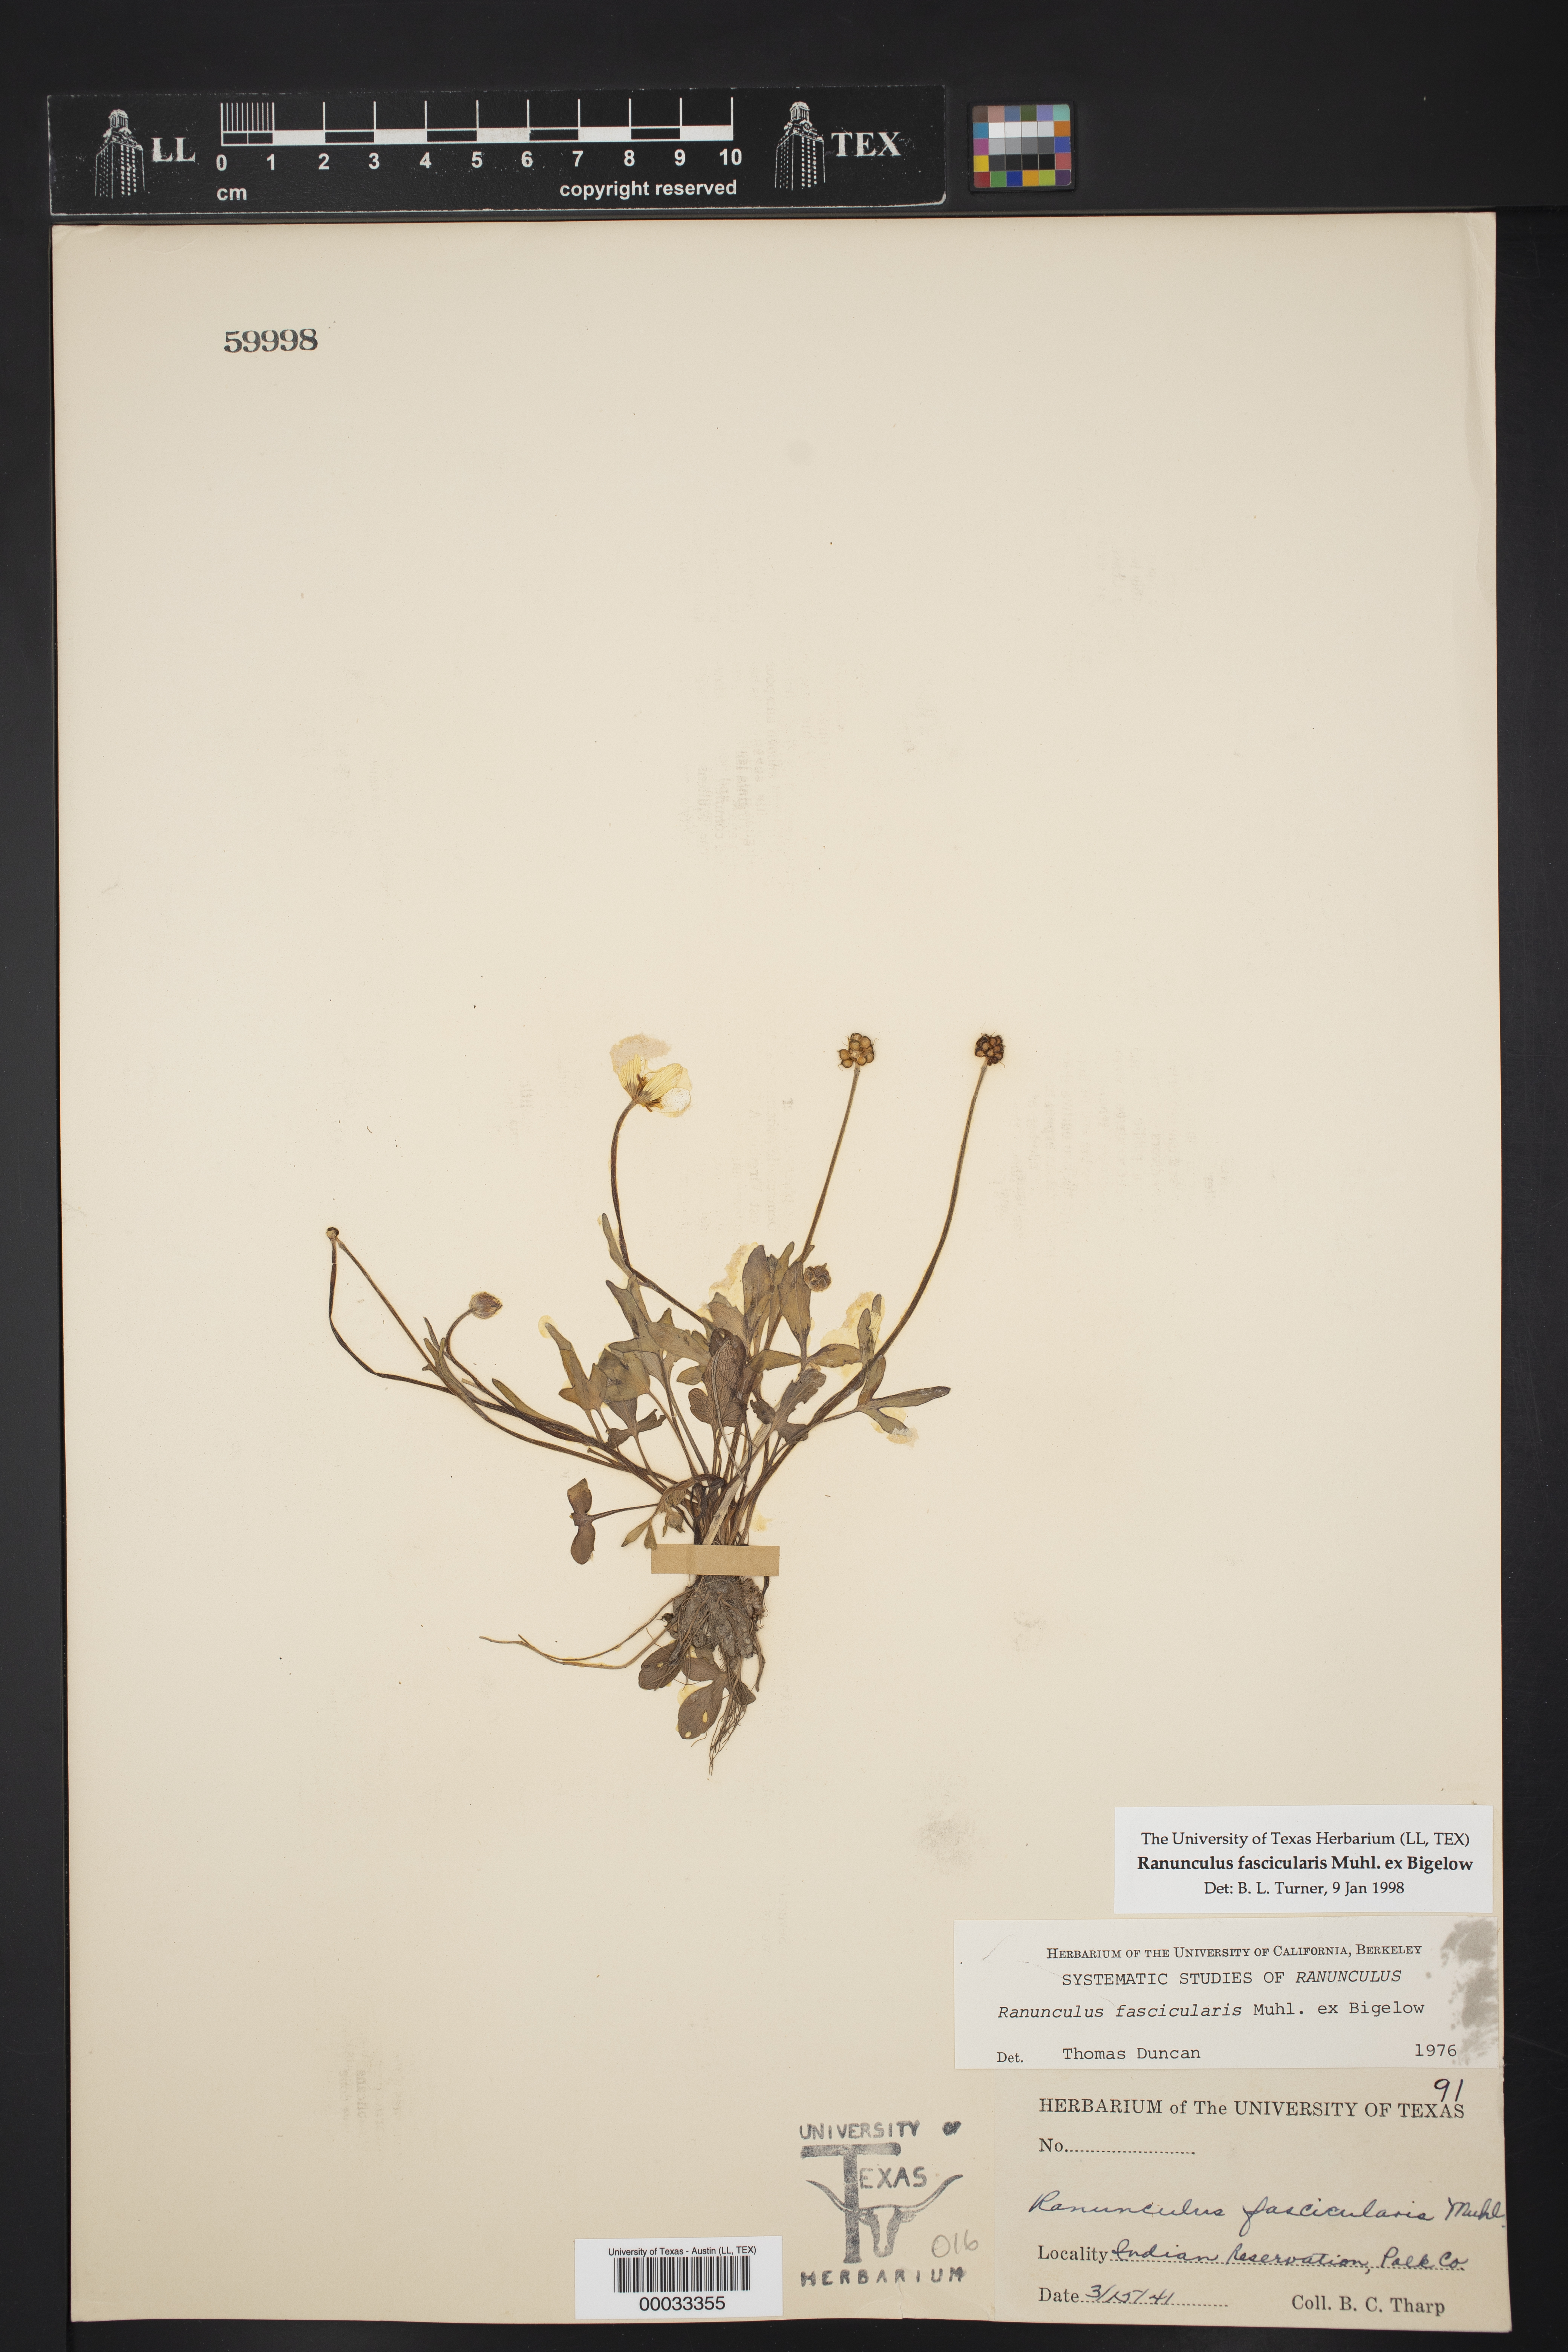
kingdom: Plantae
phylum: Tracheophyta
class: Magnoliopsida
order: Ranunculales
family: Ranunculaceae
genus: Ranunculus
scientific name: Ranunculus fascicularis
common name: Early buttercup
